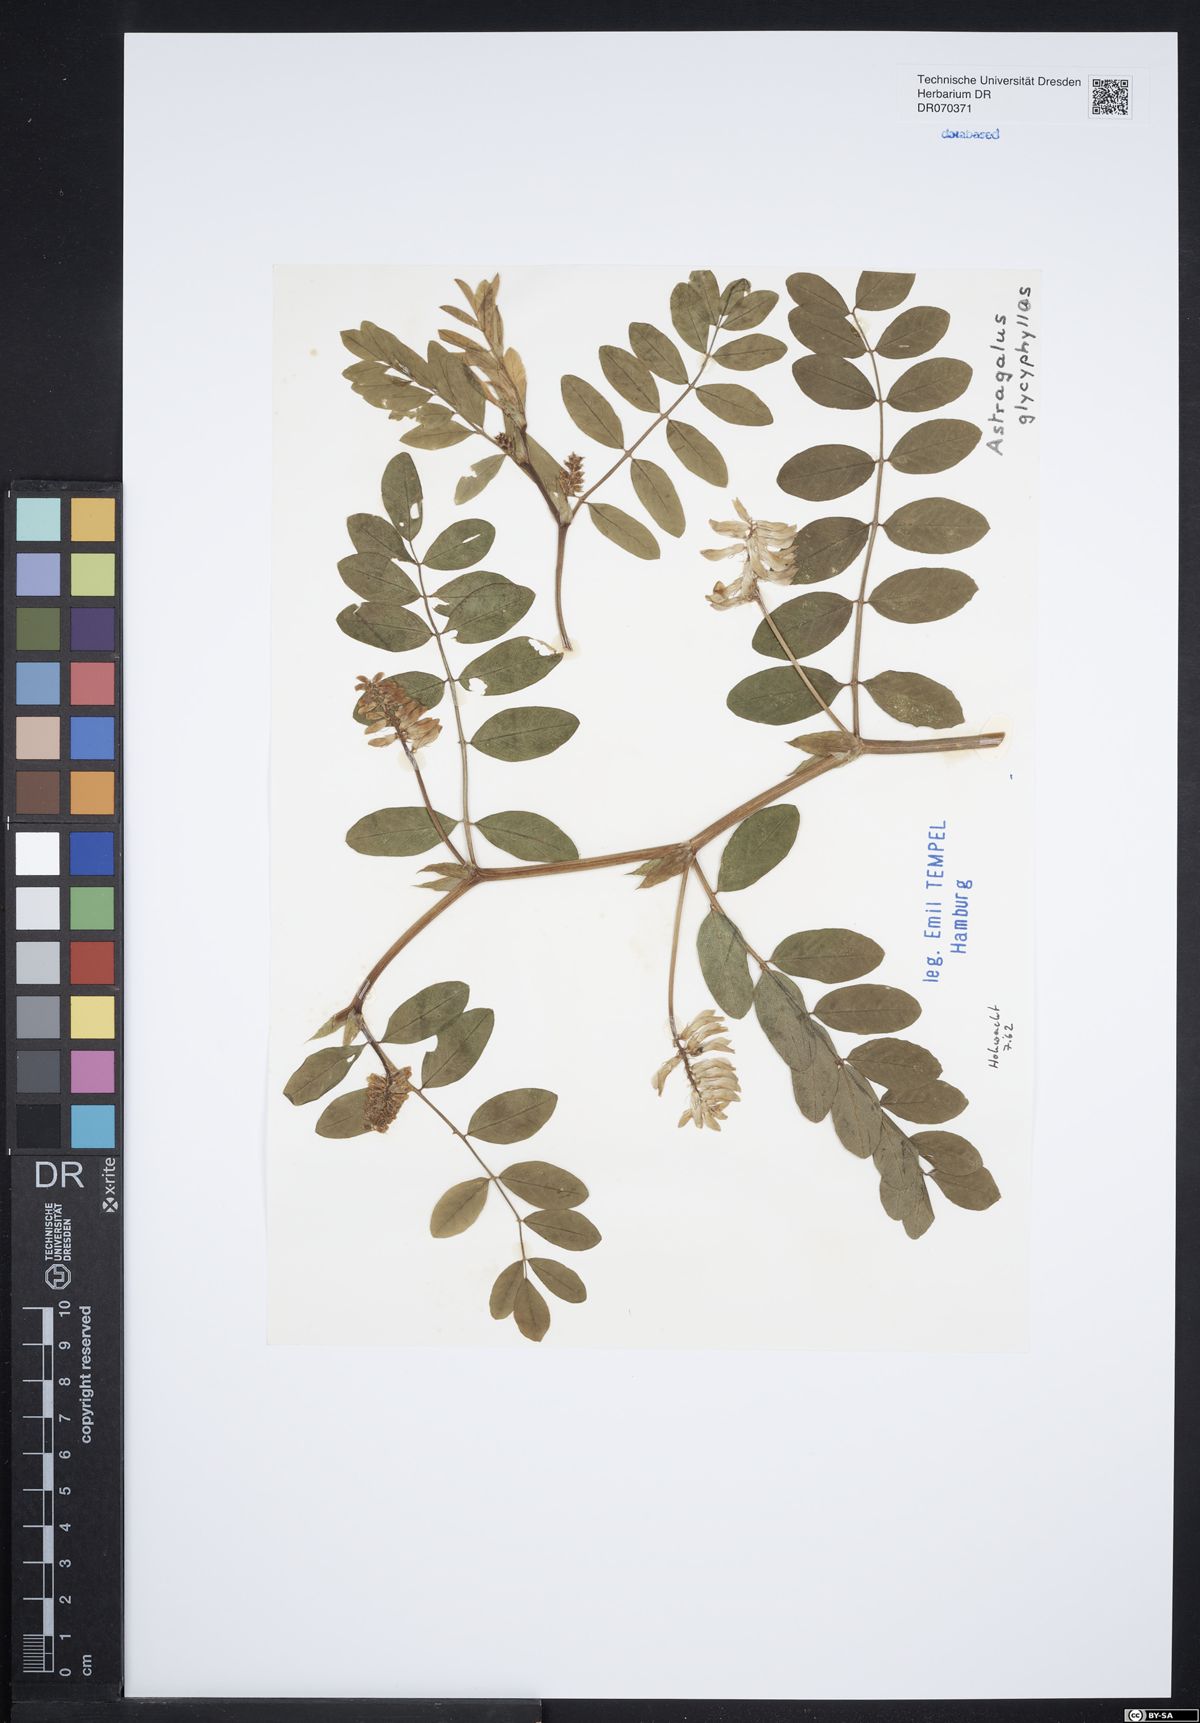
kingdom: Plantae
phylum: Tracheophyta
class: Magnoliopsida
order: Fabales
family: Fabaceae
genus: Astragalus
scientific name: Astragalus glycyphyllos
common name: Wild liquorice
